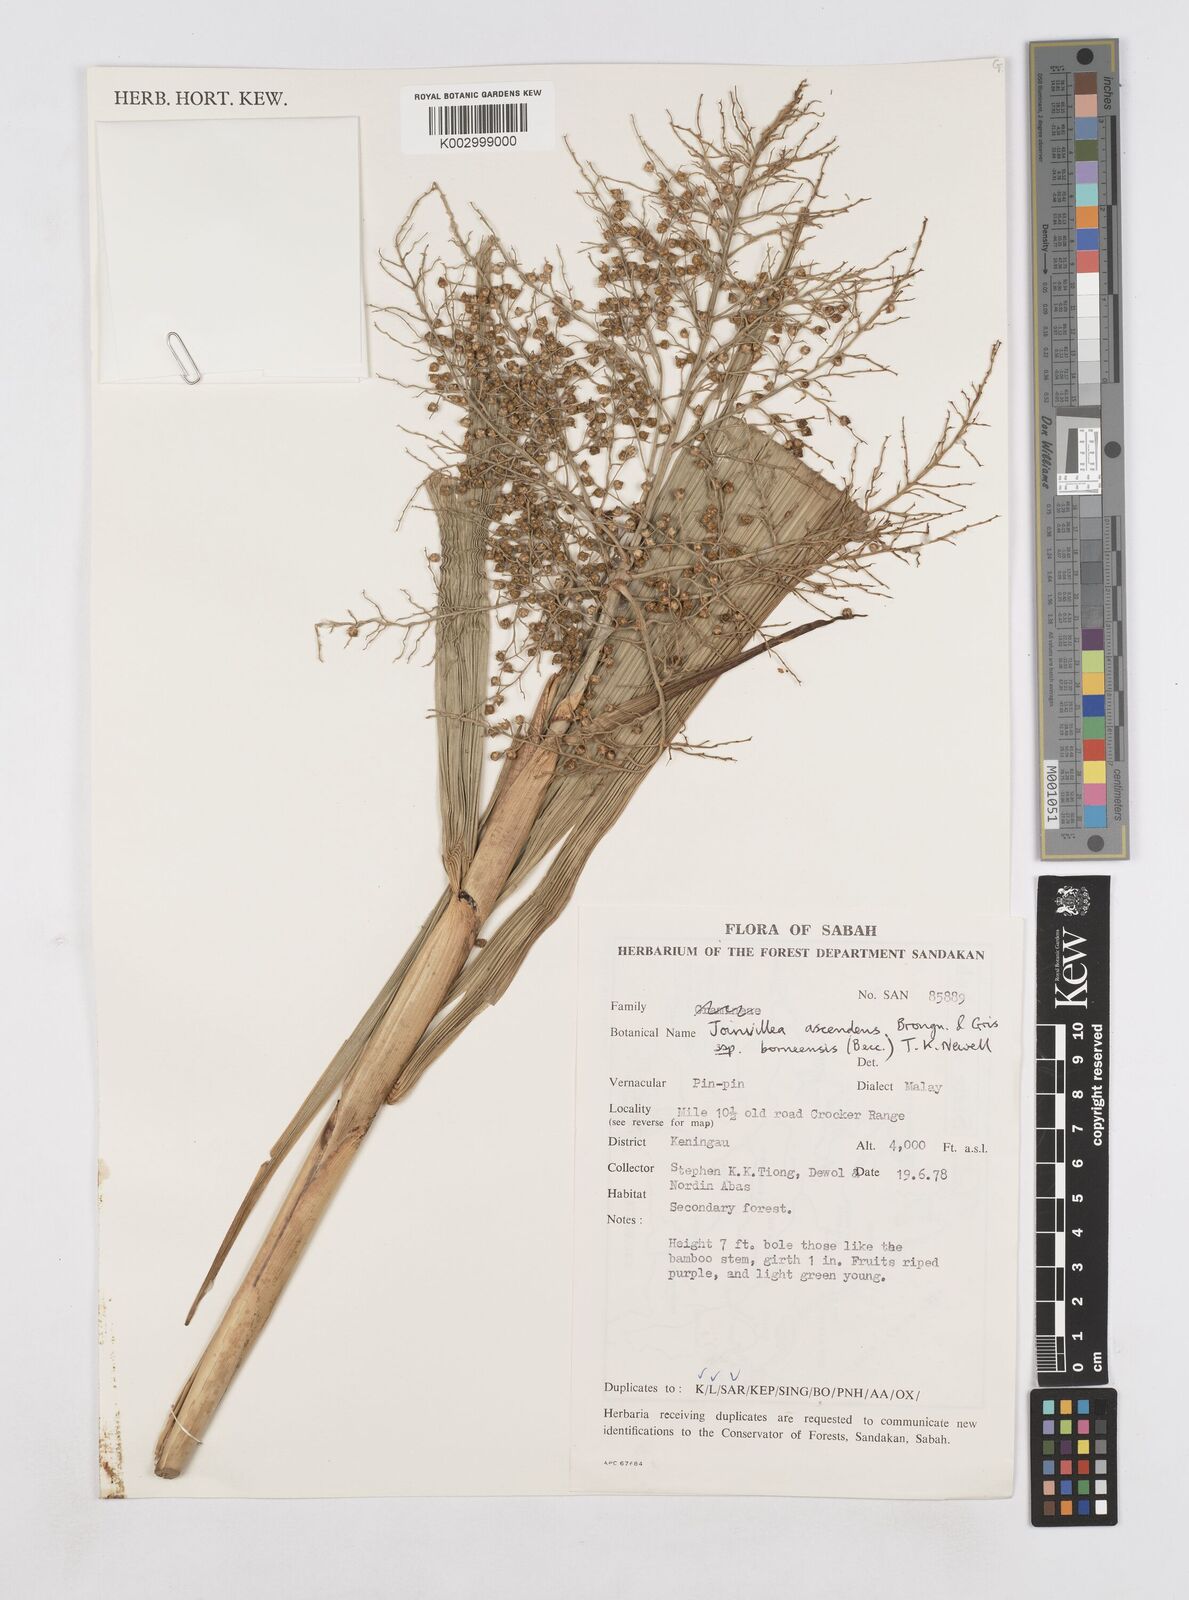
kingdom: Plantae
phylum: Tracheophyta
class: Liliopsida
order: Poales
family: Joinvilleaceae
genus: Joinvillea
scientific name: Joinvillea borneensis
